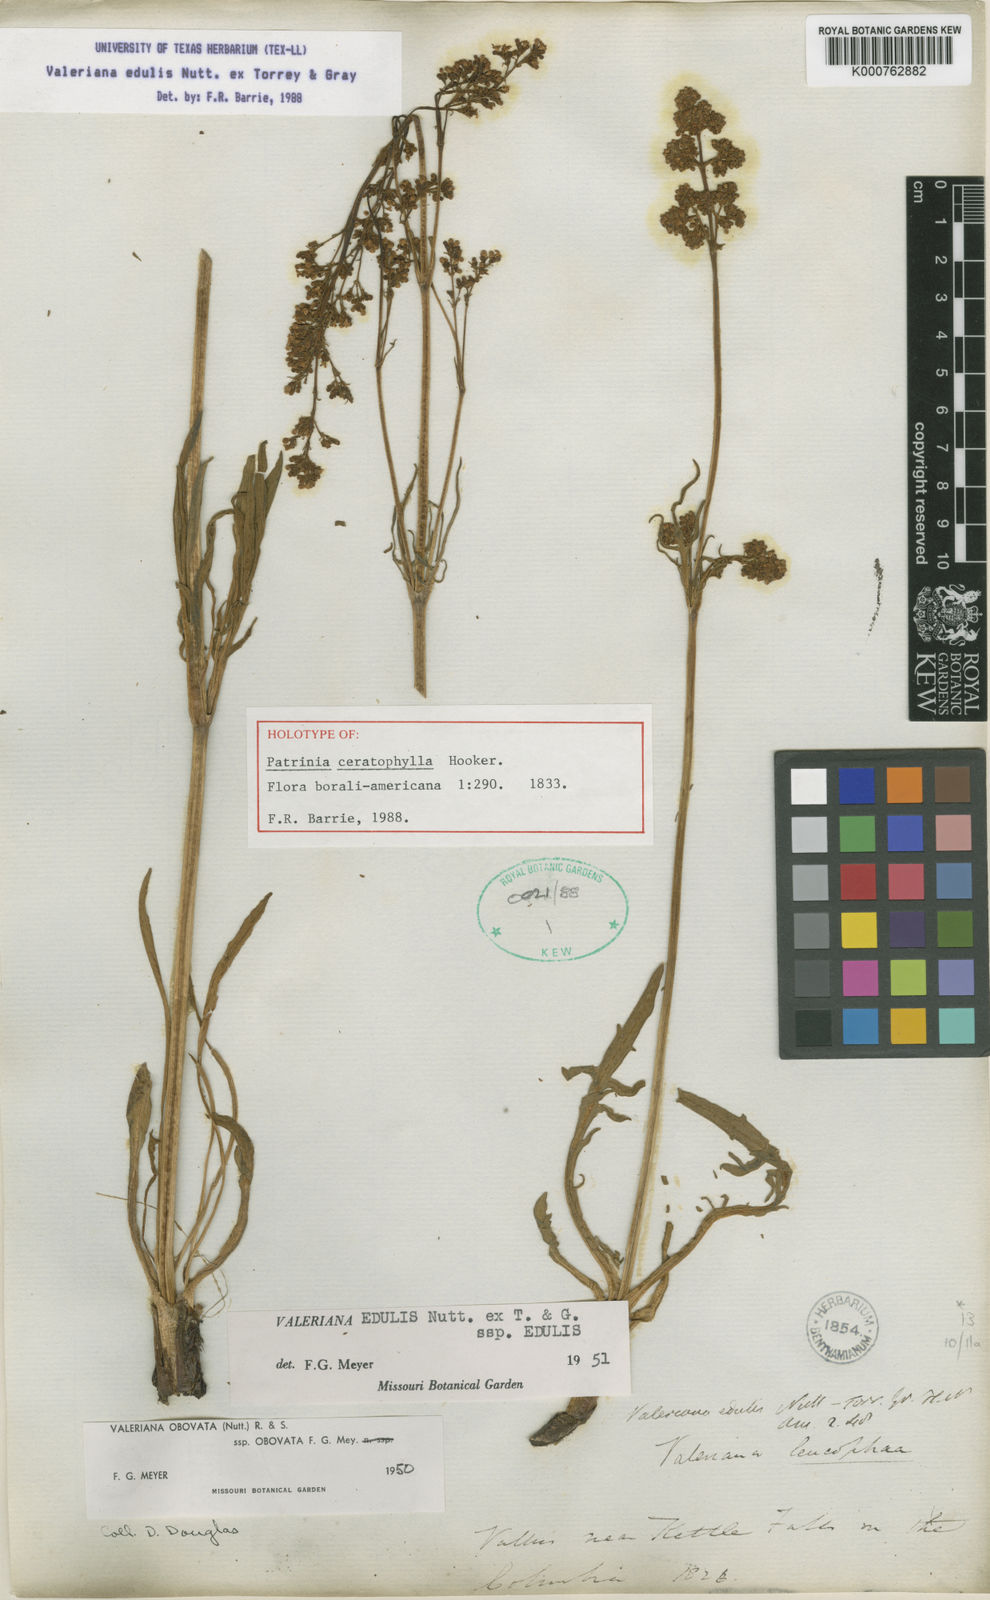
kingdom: Plantae
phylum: Tracheophyta
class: Magnoliopsida
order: Dipsacales
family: Caprifoliaceae
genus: Valeriana
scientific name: Valeriana edulis
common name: Taproot valerian
